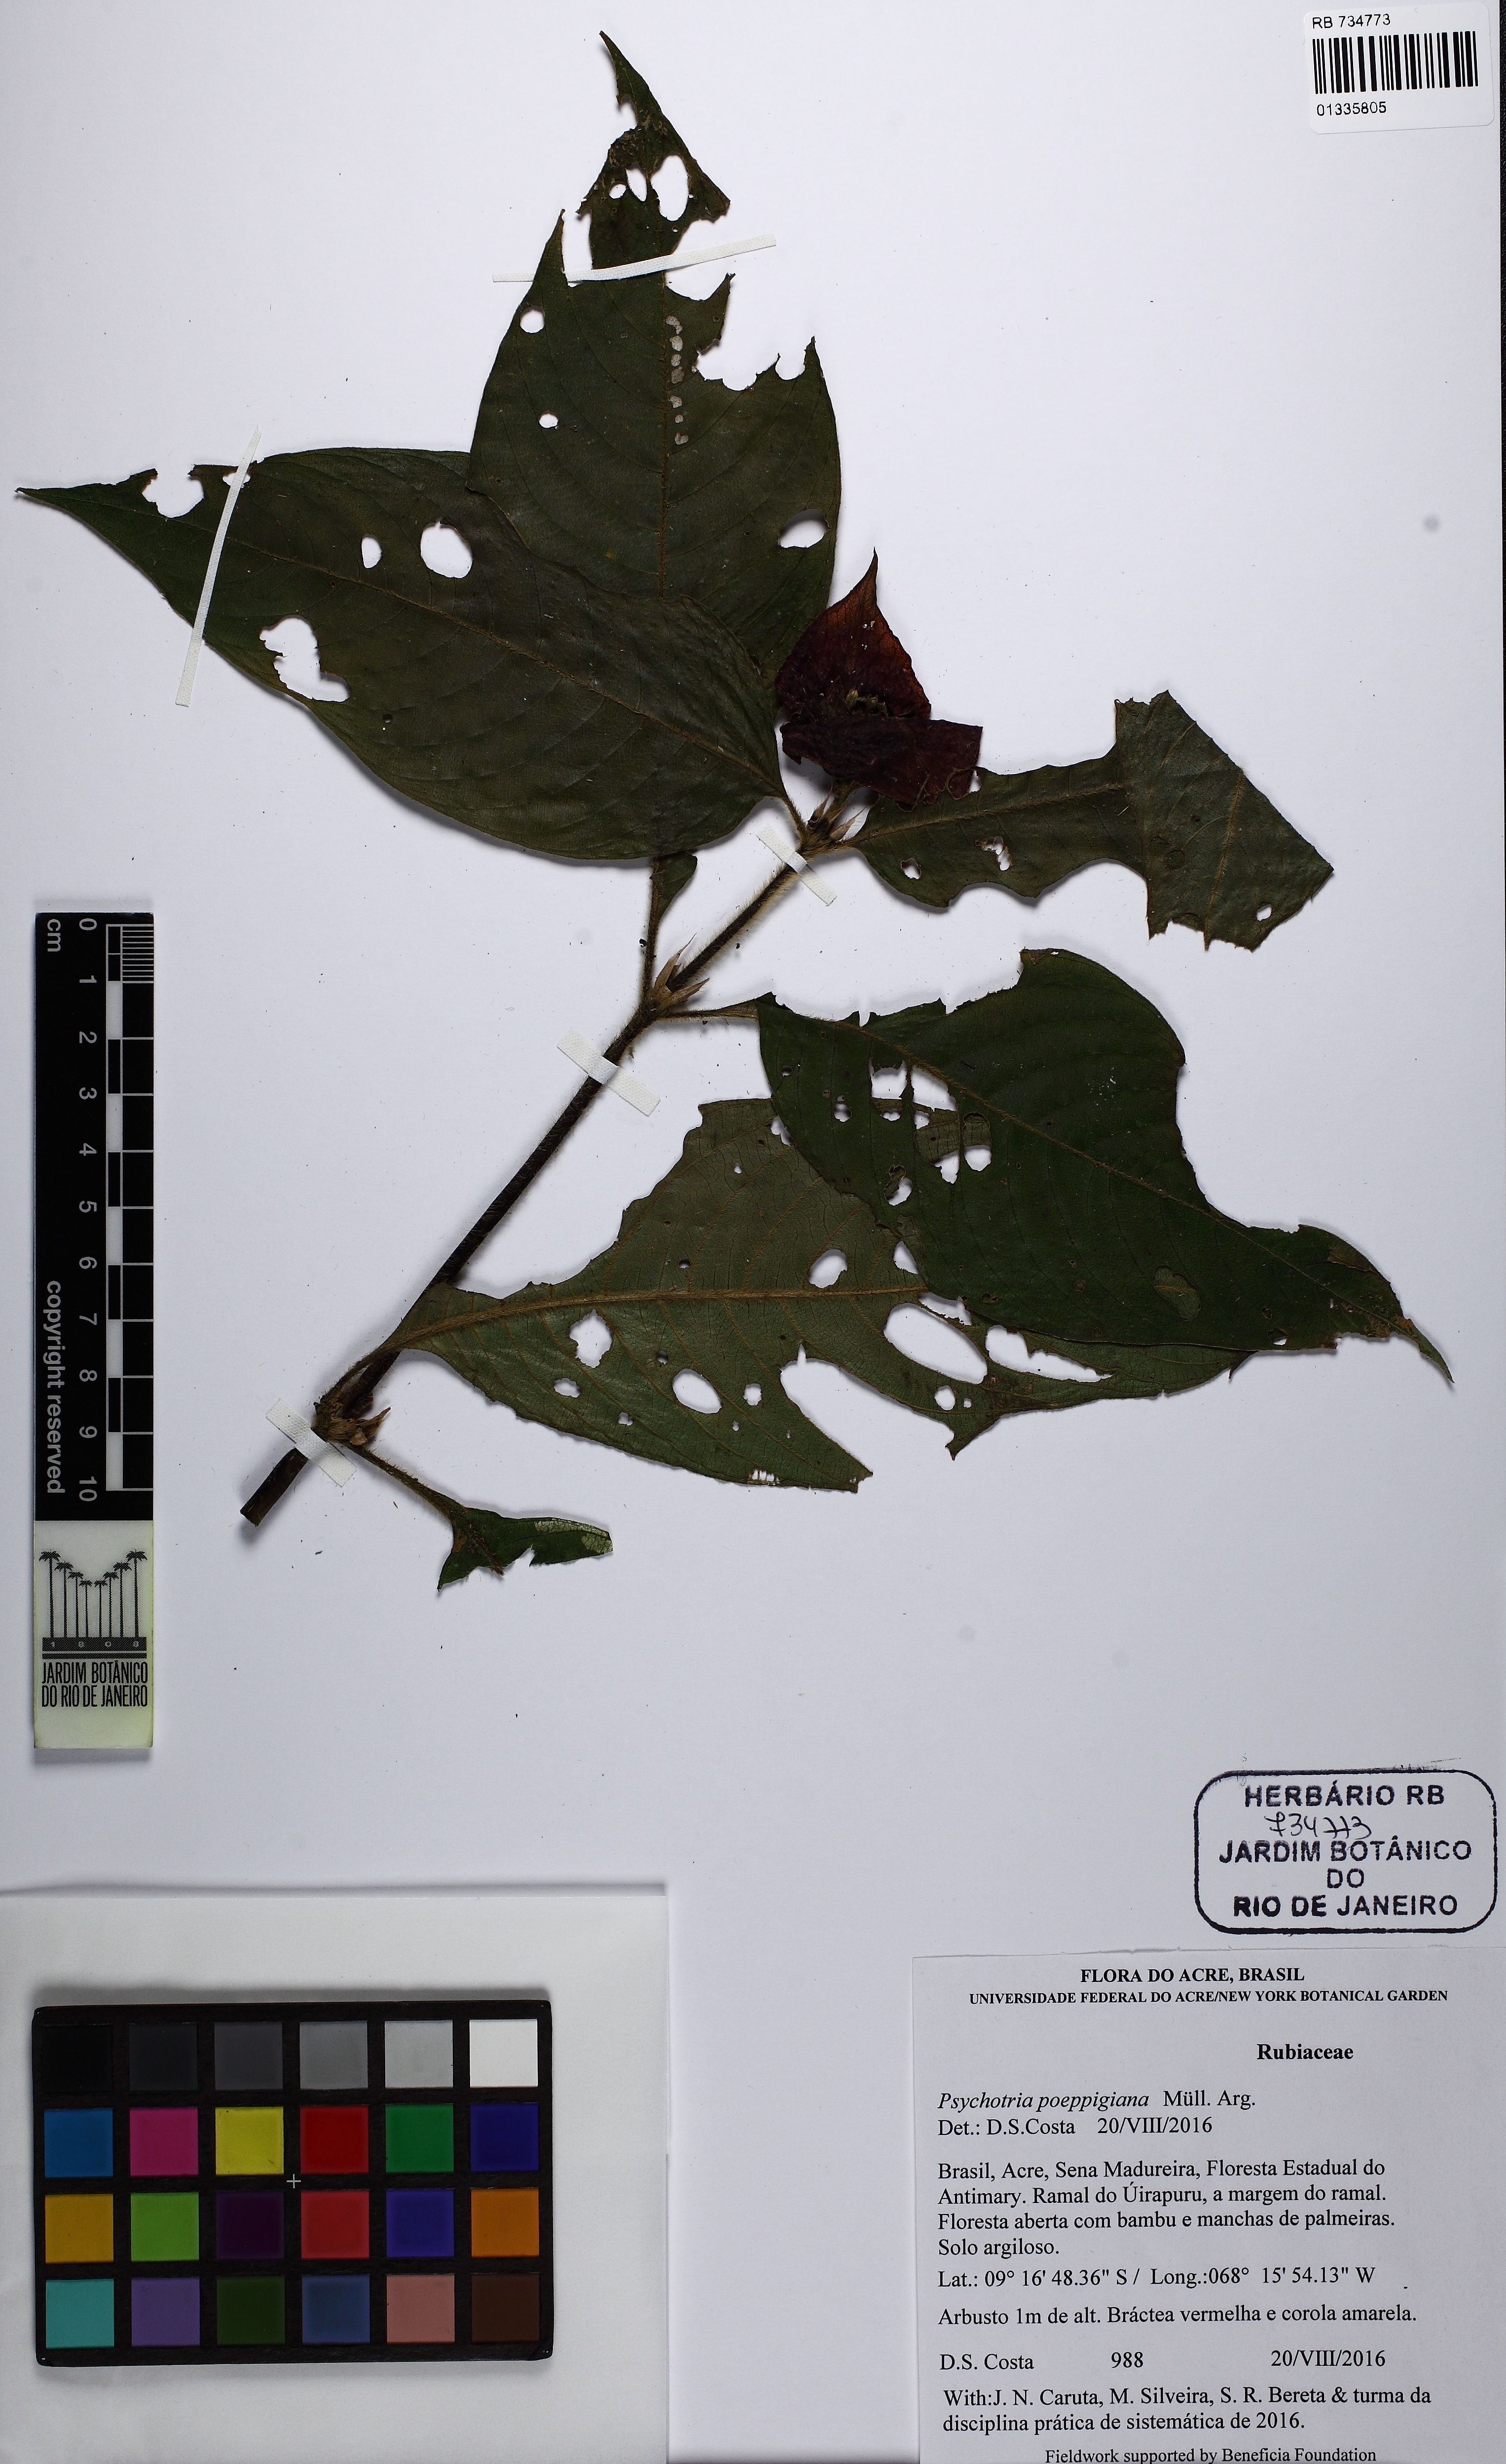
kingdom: Plantae
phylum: Tracheophyta
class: Magnoliopsida
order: Gentianales
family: Rubiaceae
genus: Palicourea
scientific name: Palicourea tomentosa
